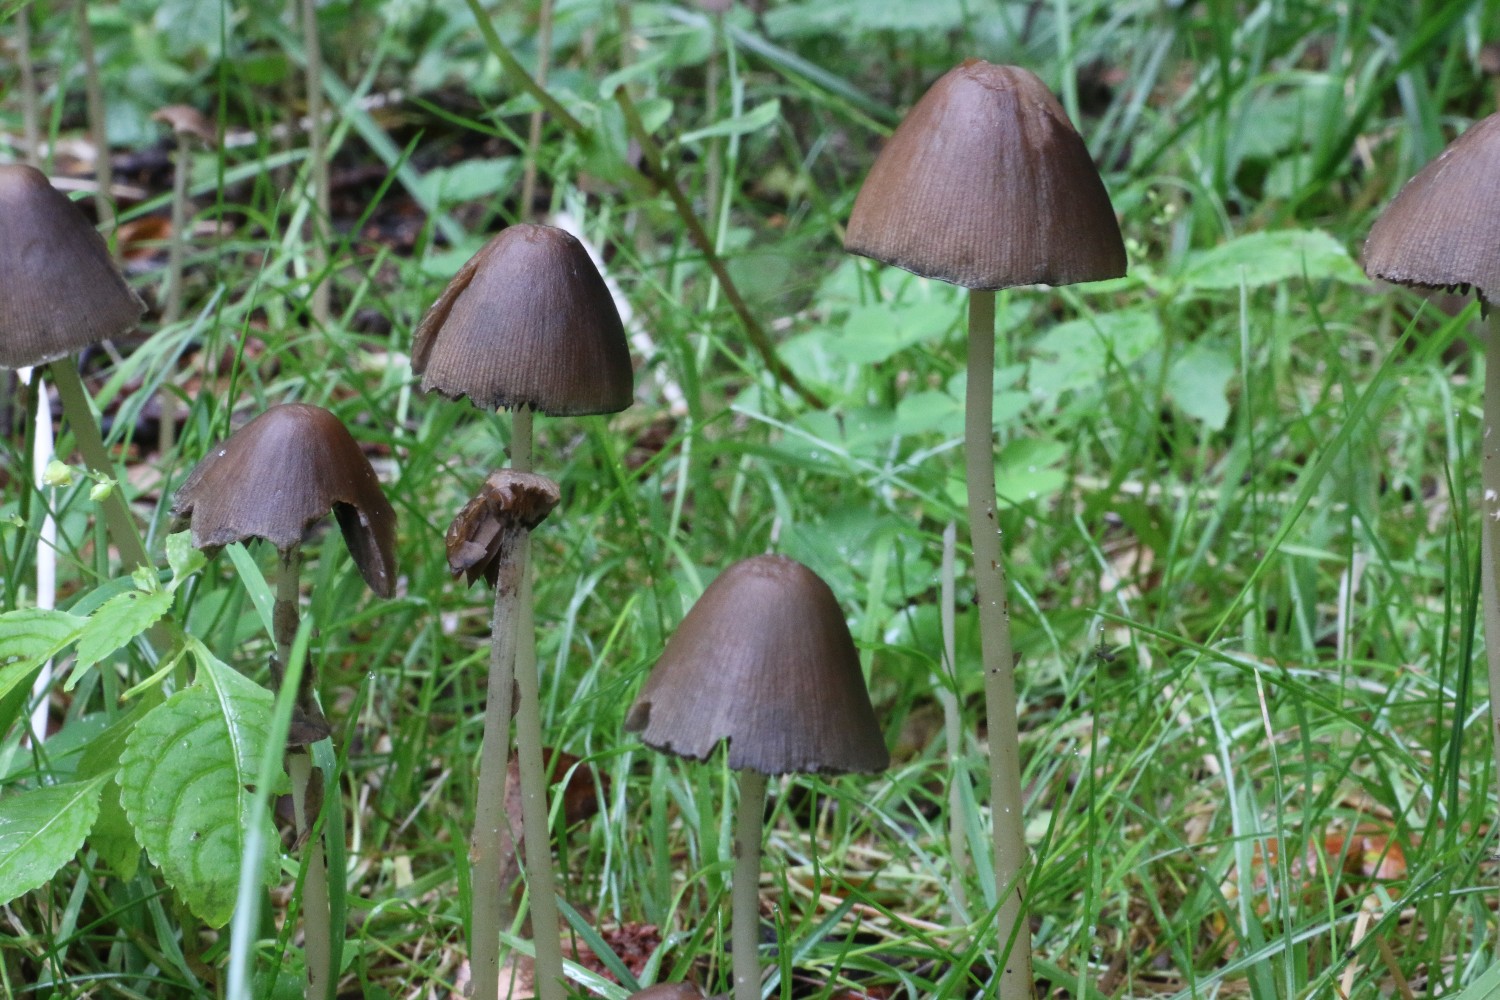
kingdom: Fungi
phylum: Basidiomycota
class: Agaricomycetes
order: Agaricales
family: Psathyrellaceae
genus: Parasola
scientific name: Parasola conopilea
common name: kegle-hjulhat
